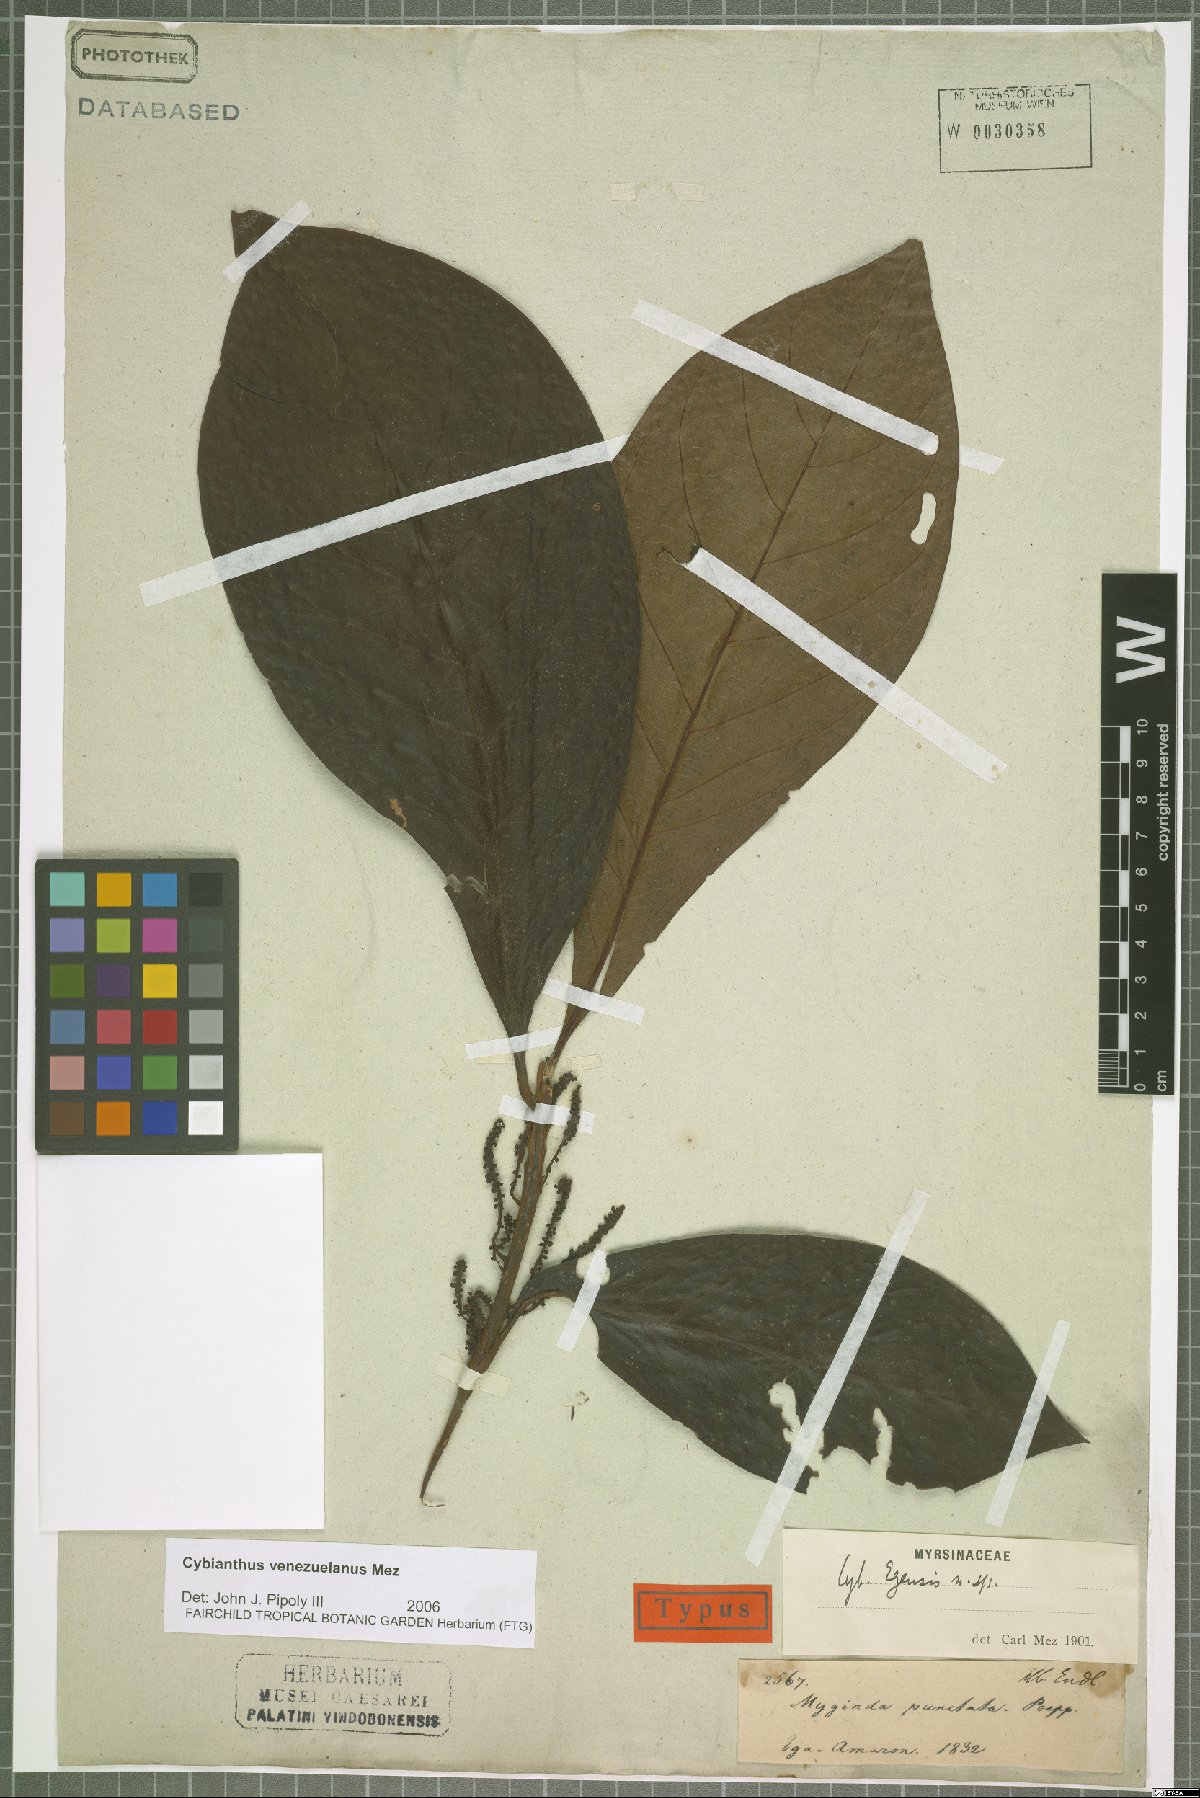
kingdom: Plantae
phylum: Tracheophyta
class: Magnoliopsida
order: Ericales
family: Primulaceae
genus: Cybianthus
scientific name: Cybianthus venezuelanus
